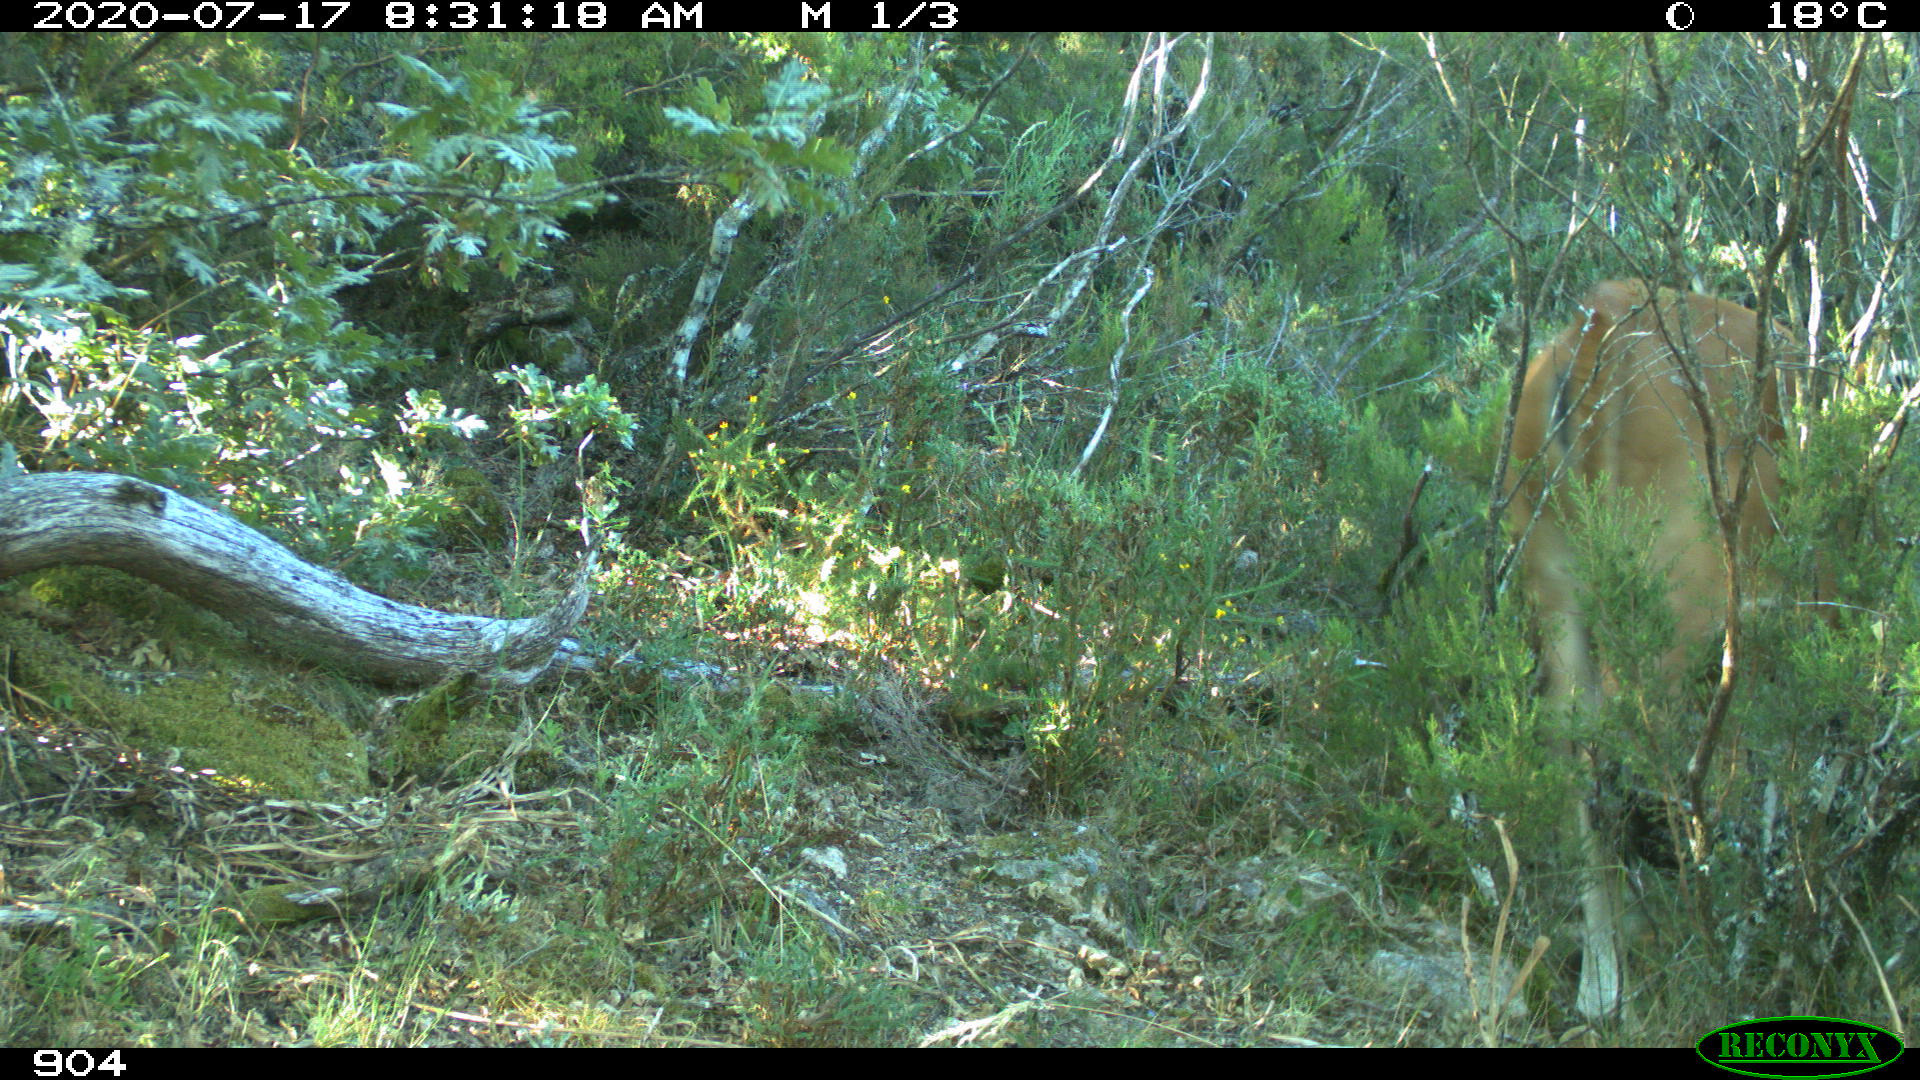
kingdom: Animalia
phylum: Chordata
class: Mammalia
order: Artiodactyla
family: Bovidae
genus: Bos
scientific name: Bos taurus
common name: Domesticated cattle
